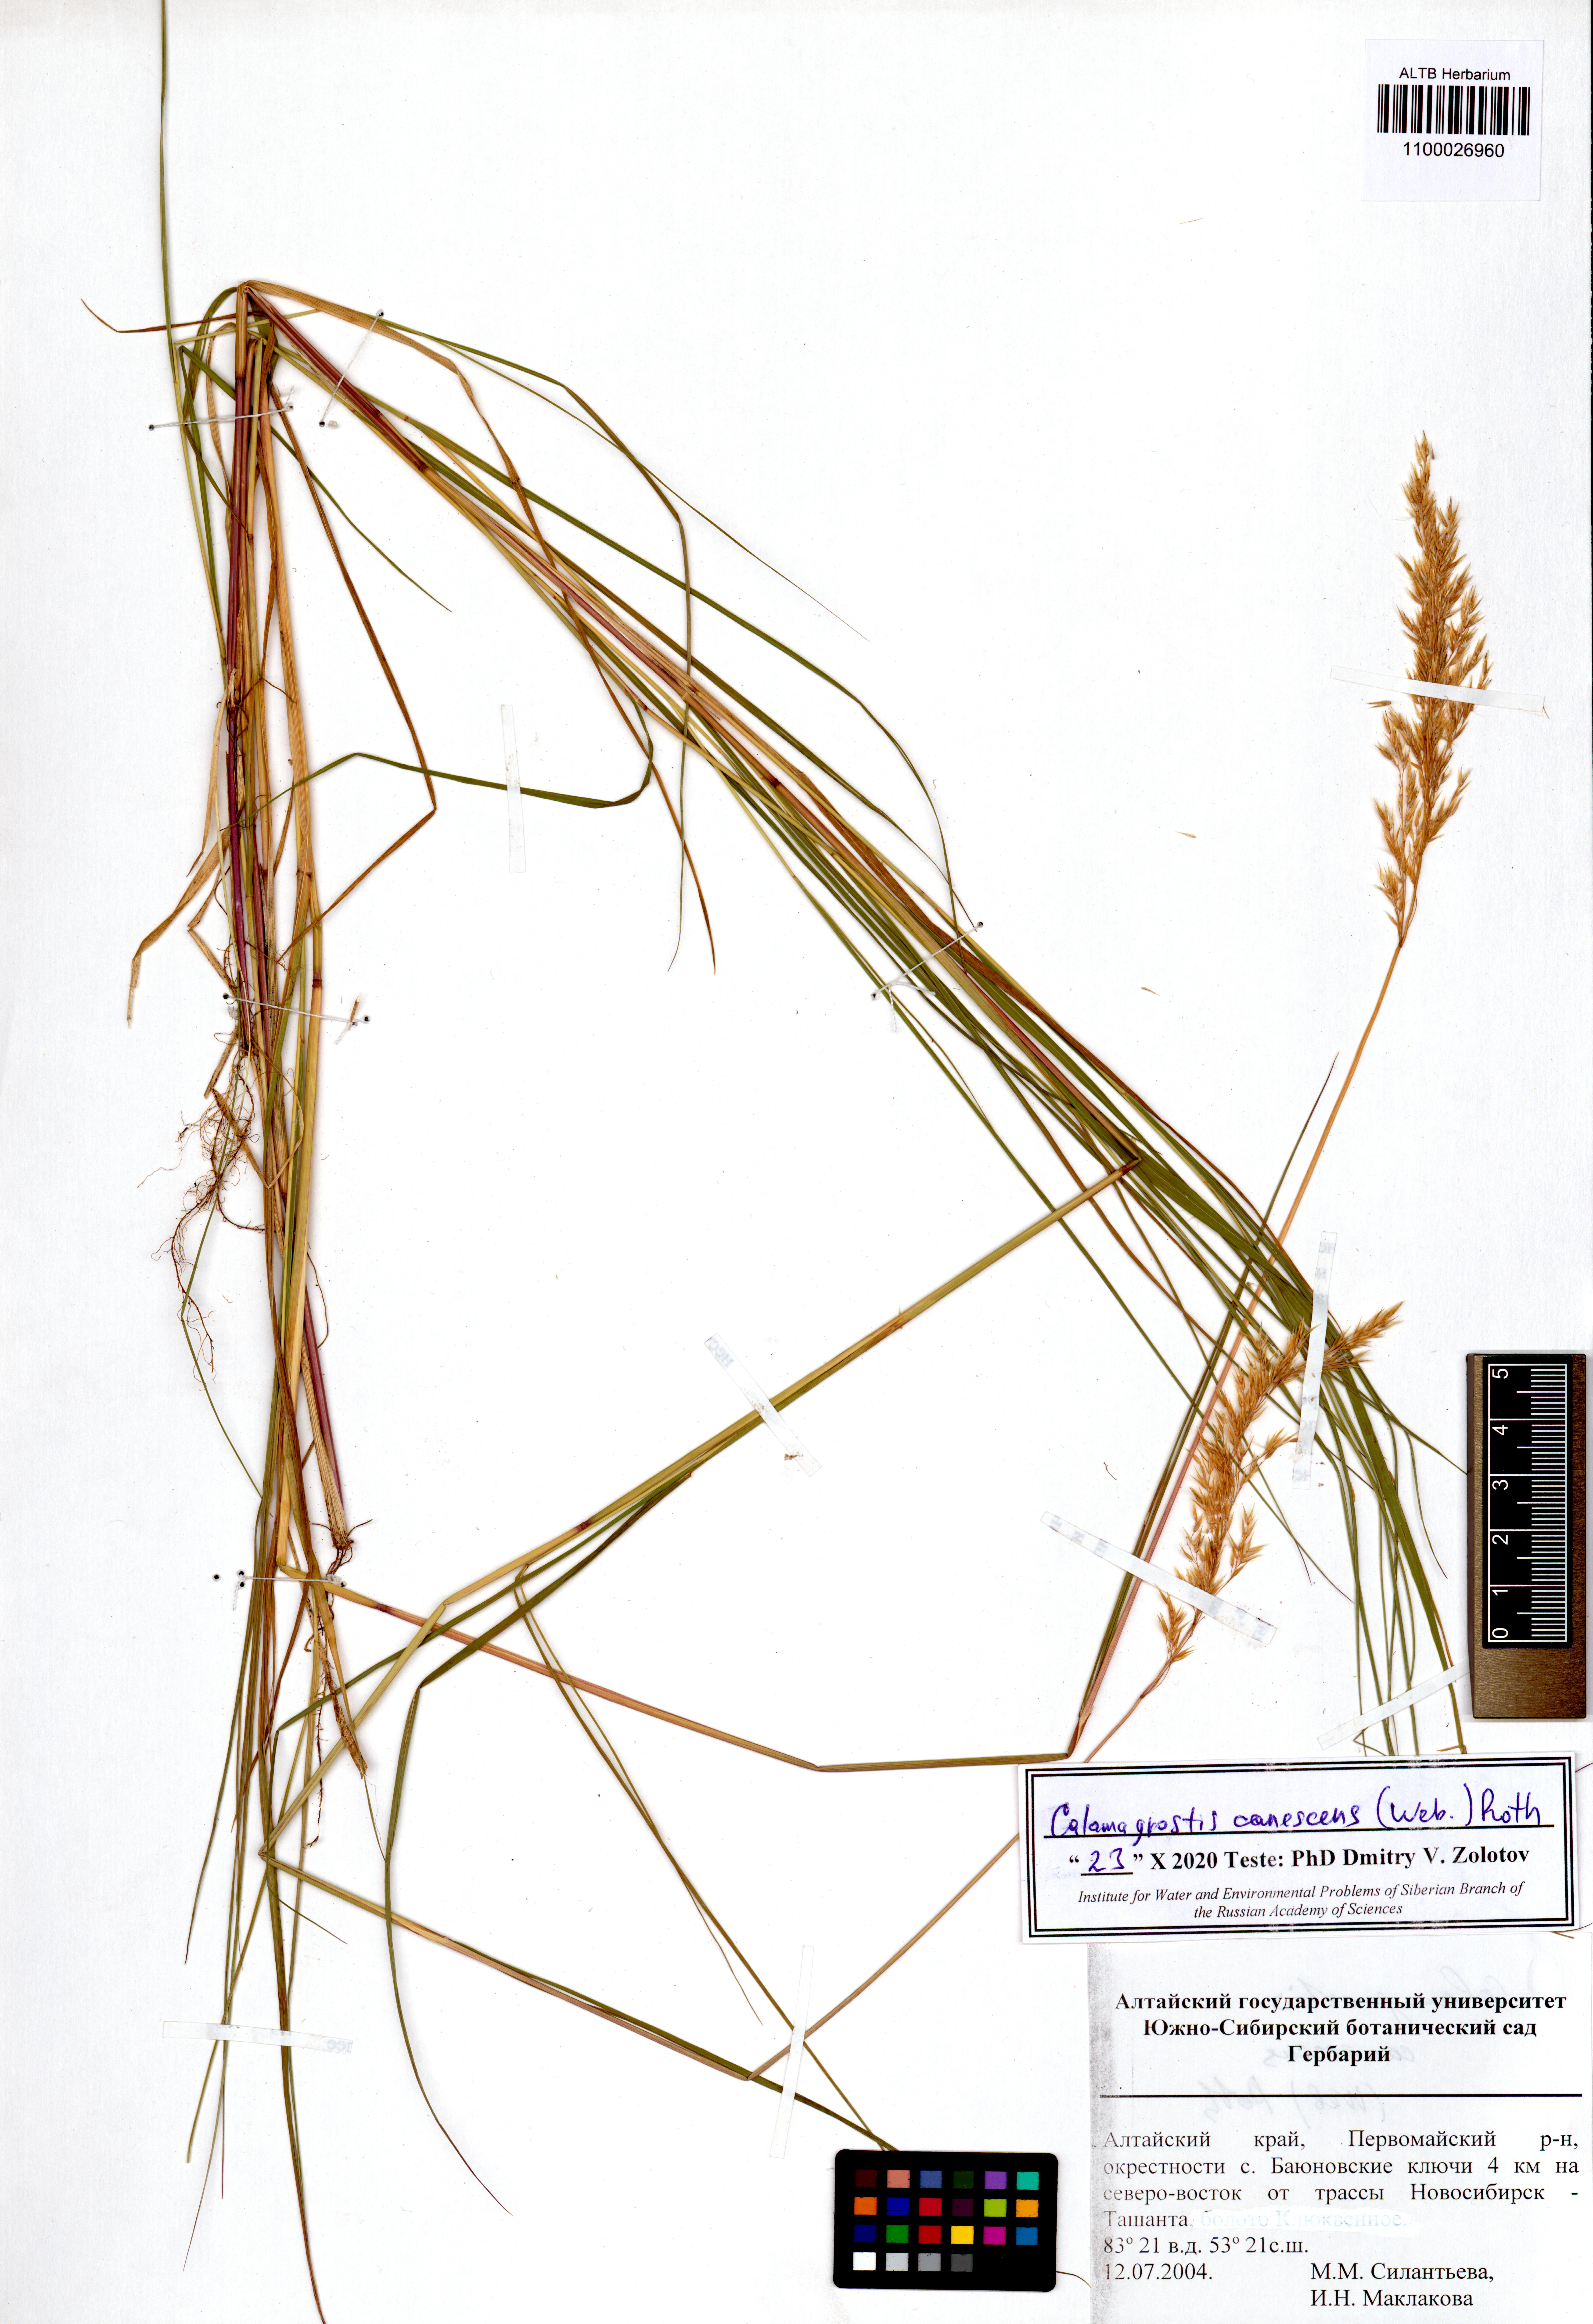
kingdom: Plantae
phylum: Tracheophyta
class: Liliopsida
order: Poales
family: Poaceae
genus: Calamagrostis
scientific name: Calamagrostis canescens
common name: Purple small-reed
